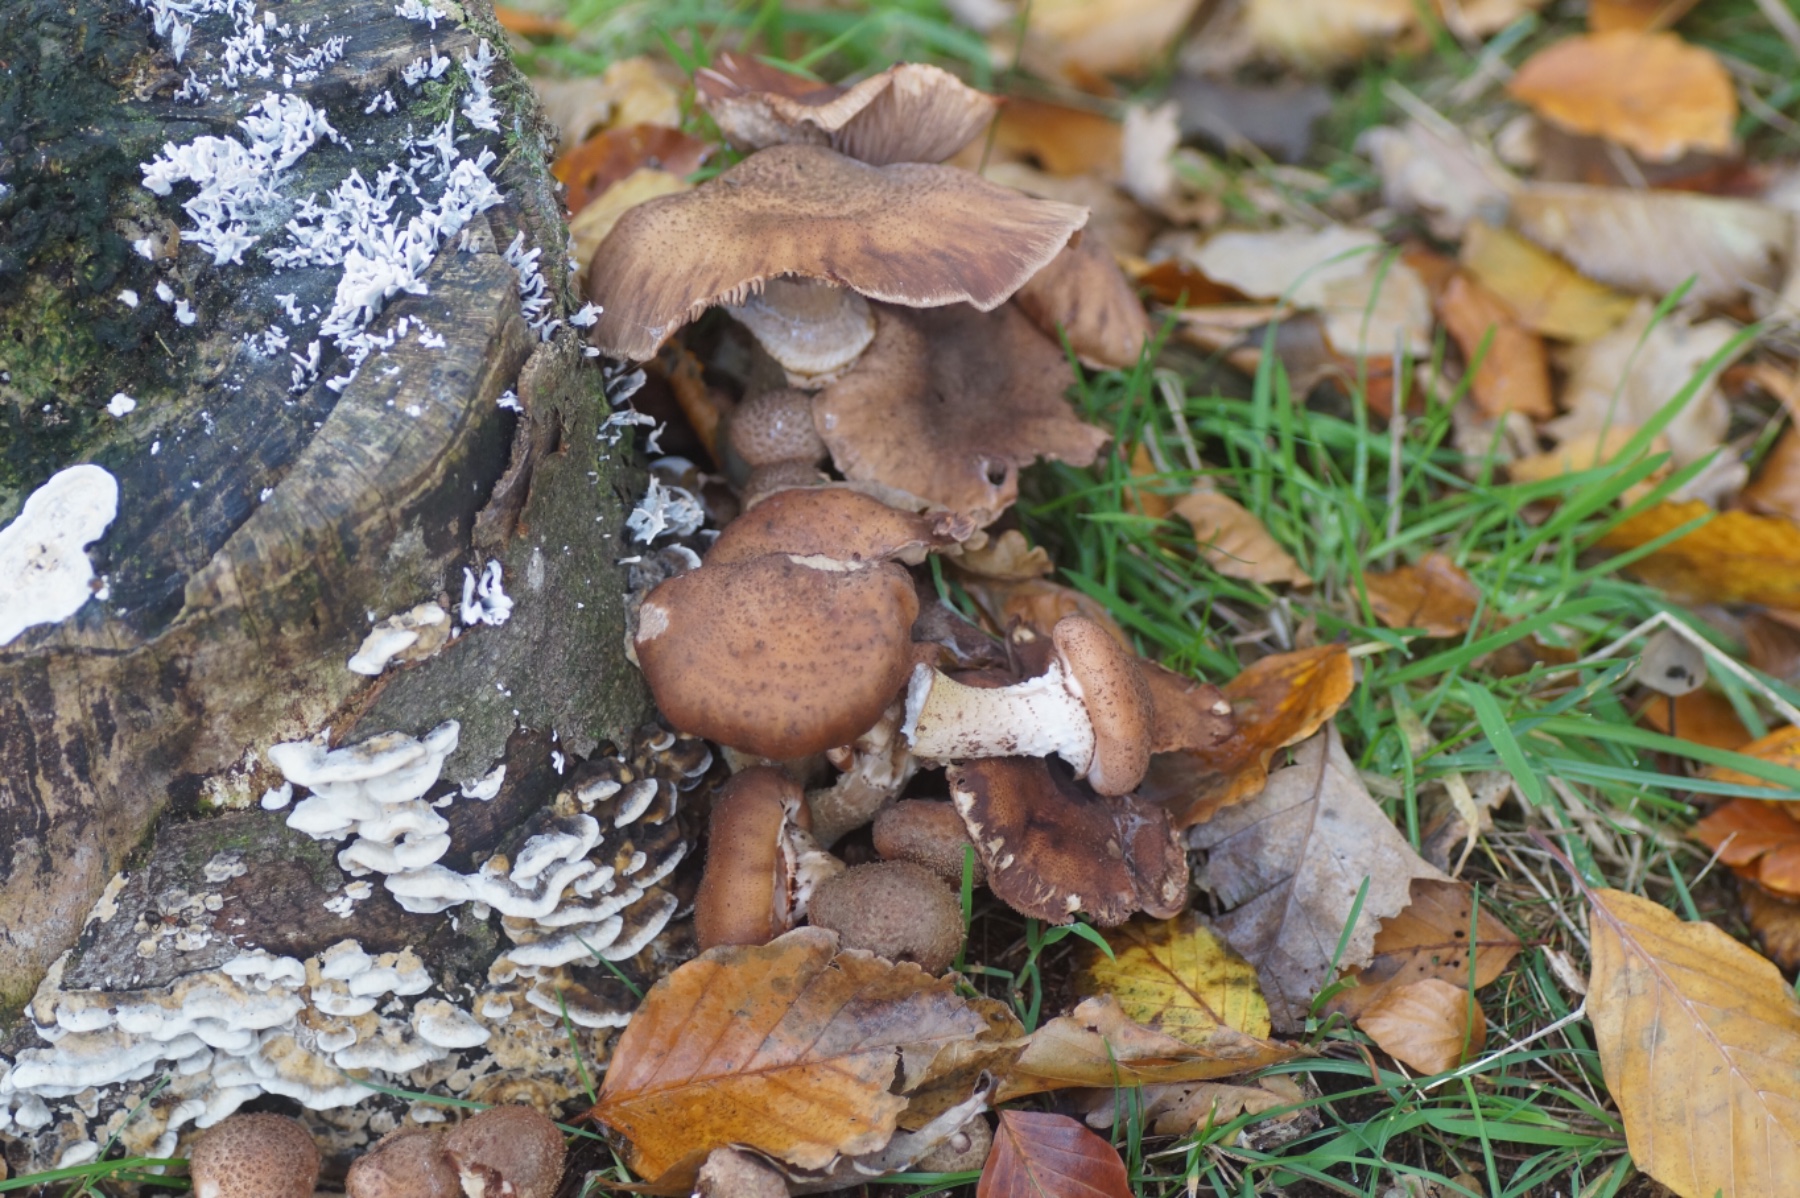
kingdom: Fungi
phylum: Basidiomycota
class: Agaricomycetes
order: Agaricales
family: Physalacriaceae
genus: Armillaria
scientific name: Armillaria ostoyae
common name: mørk honningsvamp
